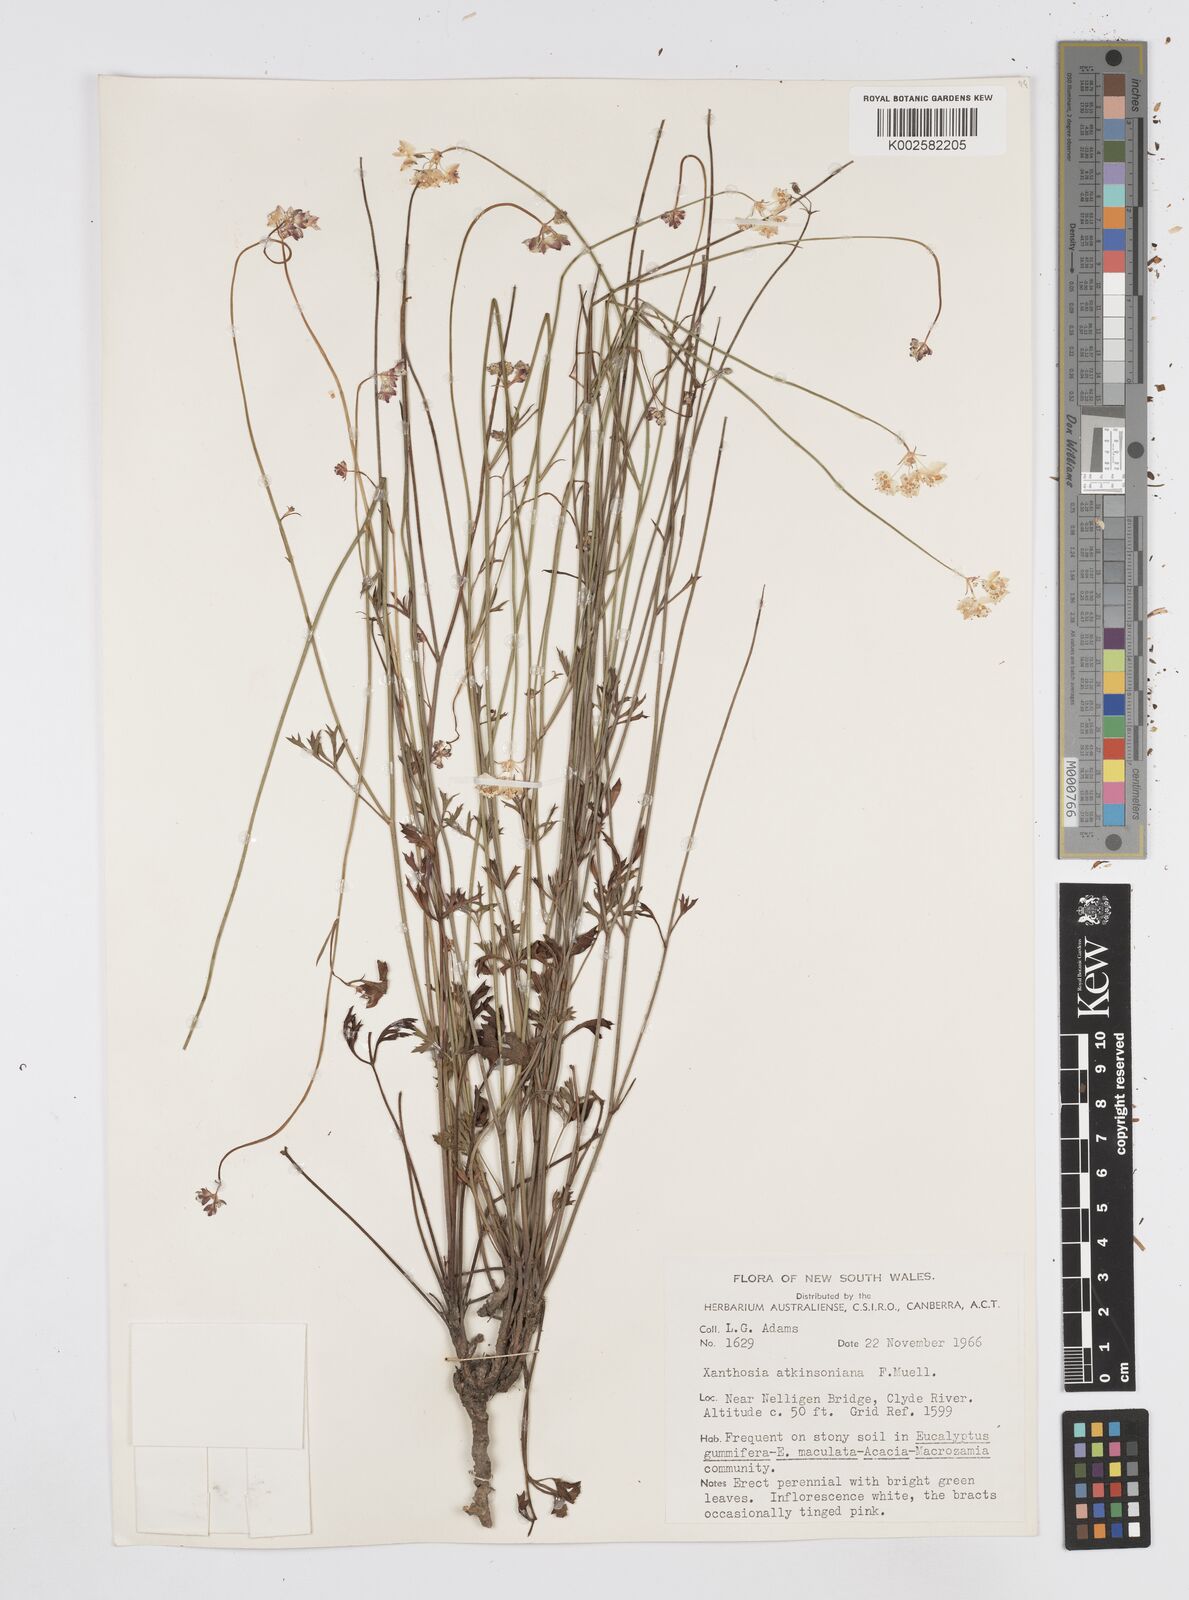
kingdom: Plantae
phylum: Tracheophyta
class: Magnoliopsida
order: Apiales
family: Apiaceae
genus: Xanthosia
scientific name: Xanthosia atkinsoniana
